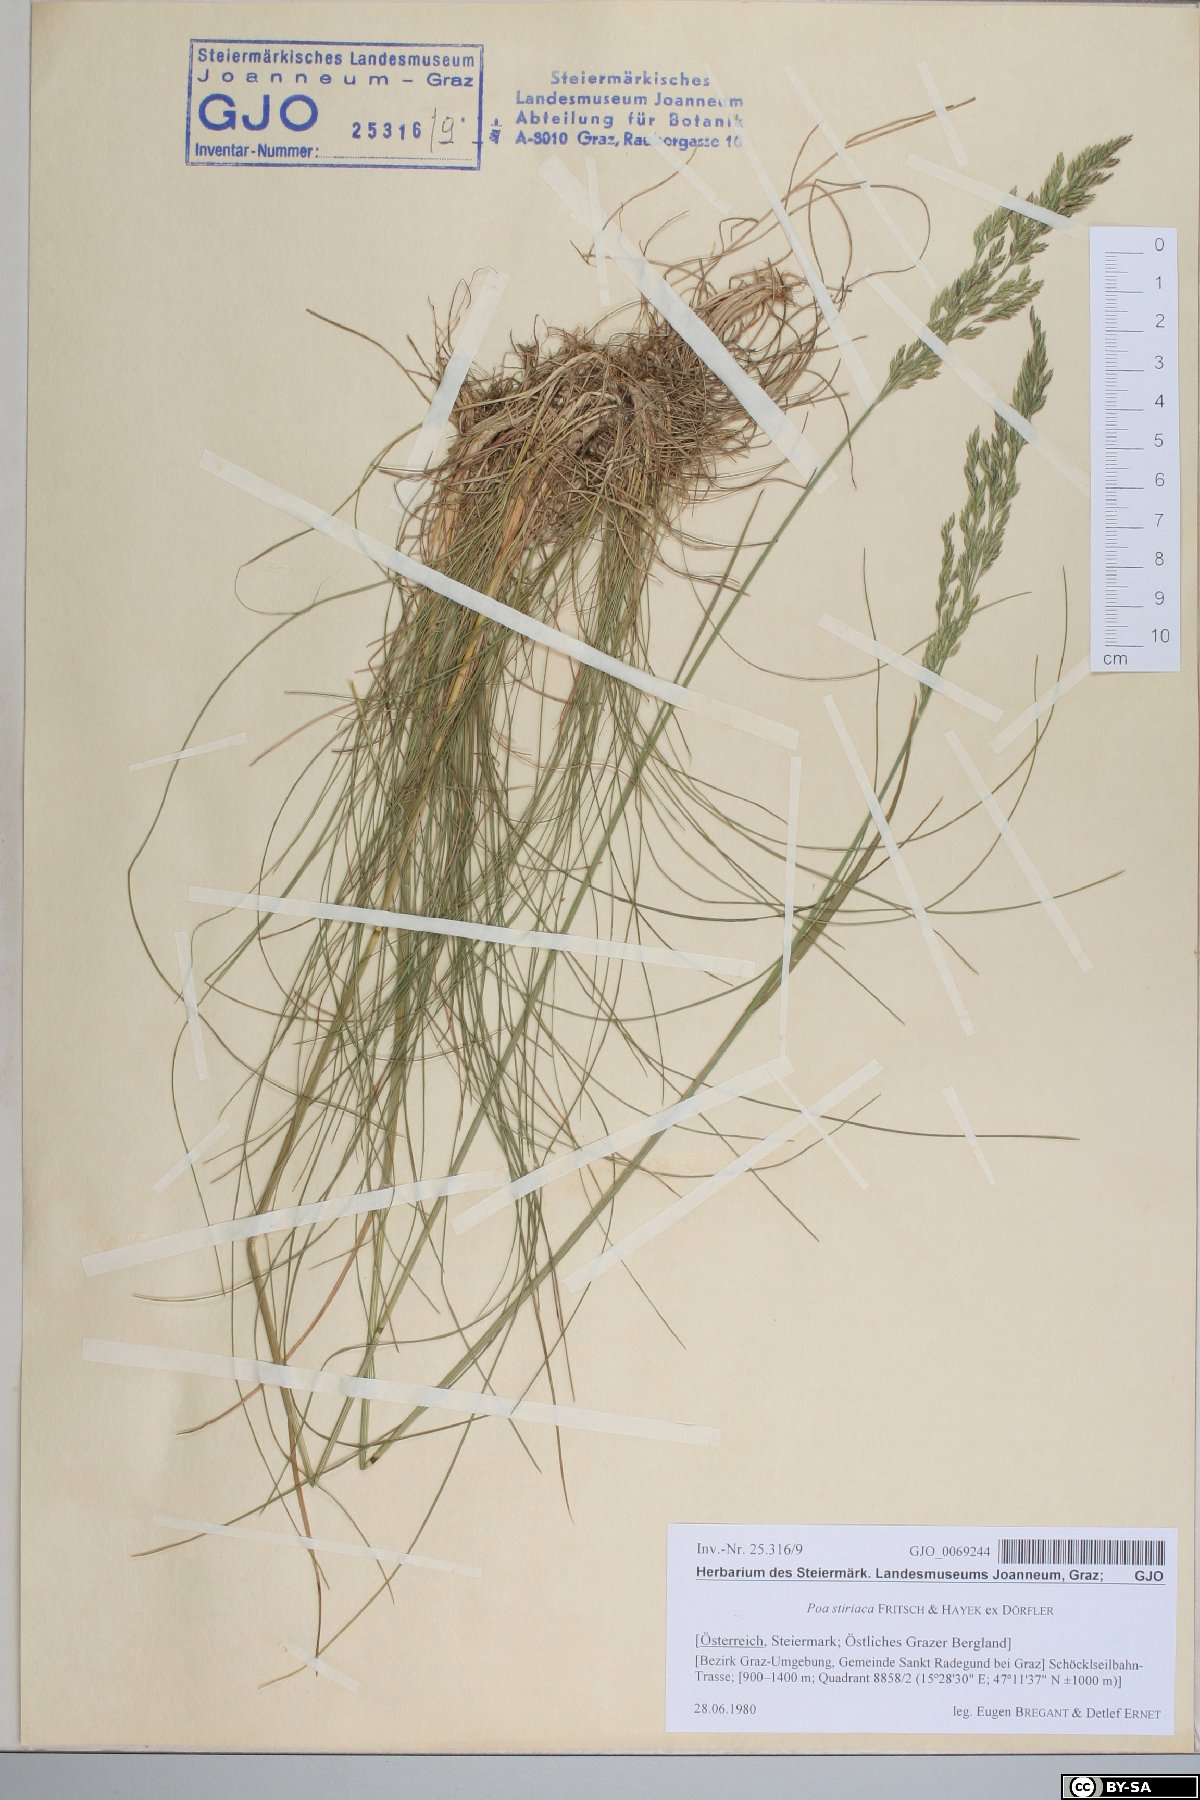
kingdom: Plantae
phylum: Tracheophyta
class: Liliopsida
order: Poales
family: Poaceae
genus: Poa
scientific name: Poa stiriaca
